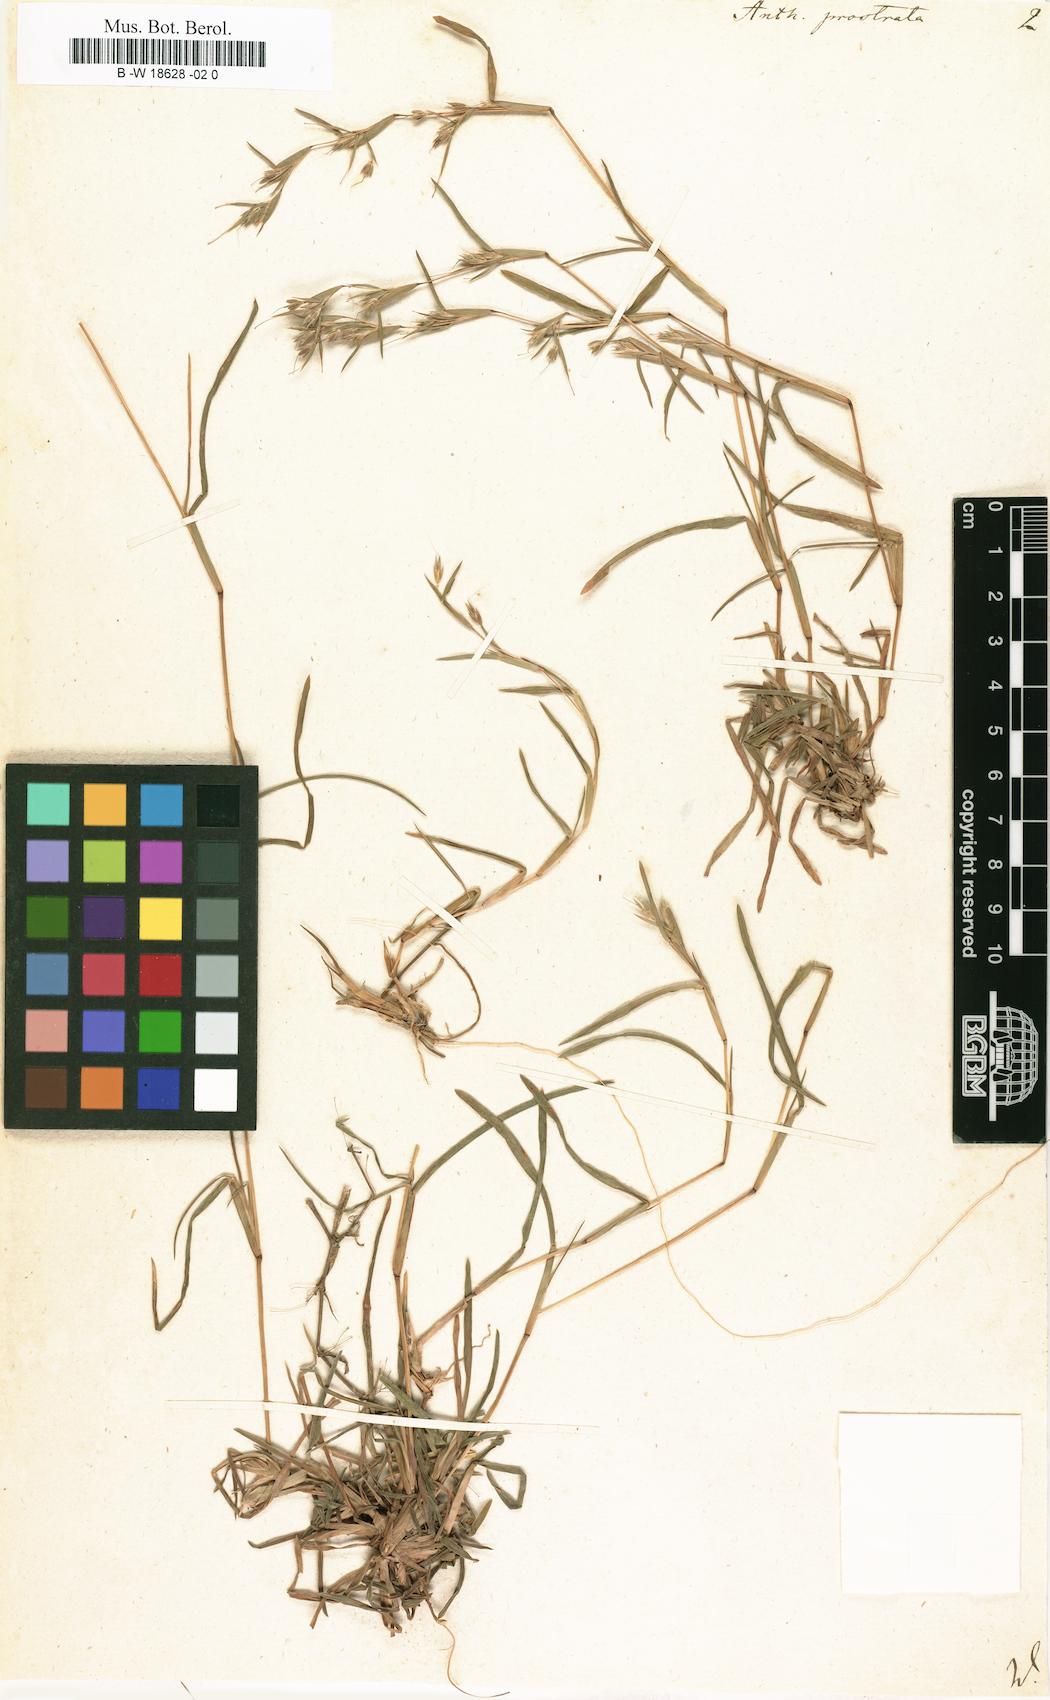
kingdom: Plantae
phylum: Tracheophyta
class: Liliopsida
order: Poales
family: Poaceae
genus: Iseilema
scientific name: Iseilema prostratum
